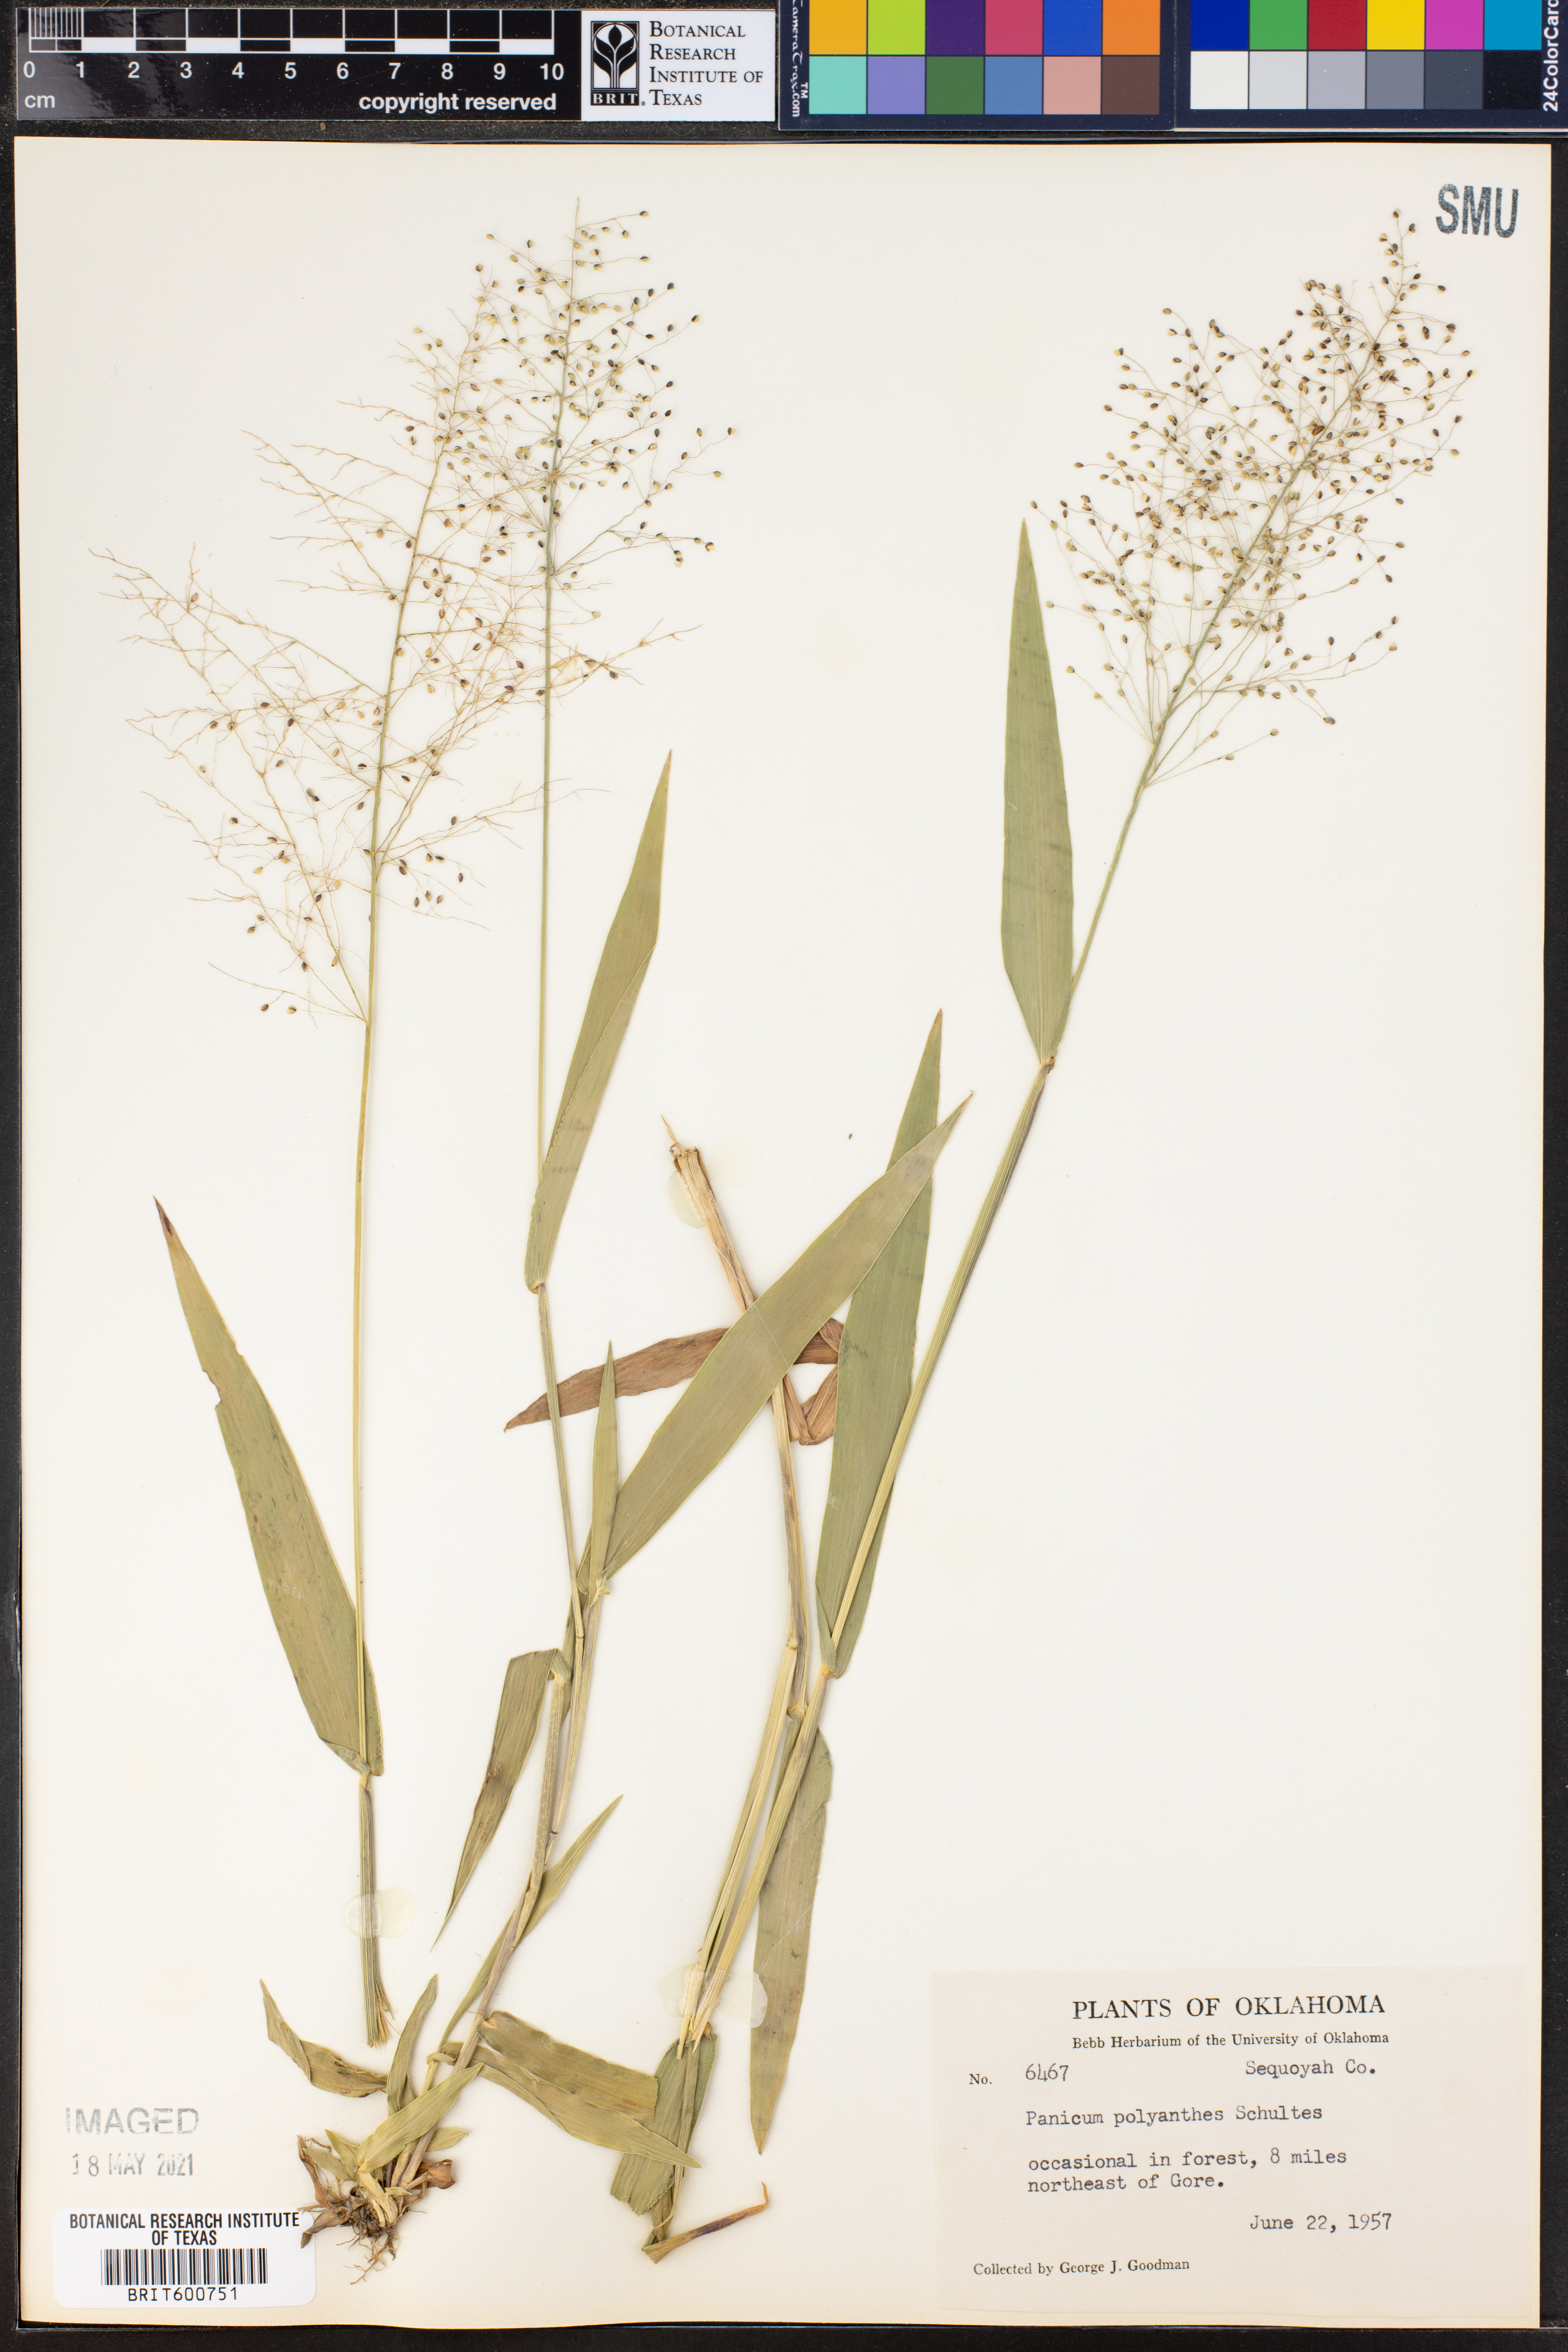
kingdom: Plantae
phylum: Tracheophyta
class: Liliopsida
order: Poales
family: Poaceae
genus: Dichanthelium
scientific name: Dichanthelium polyanthes
